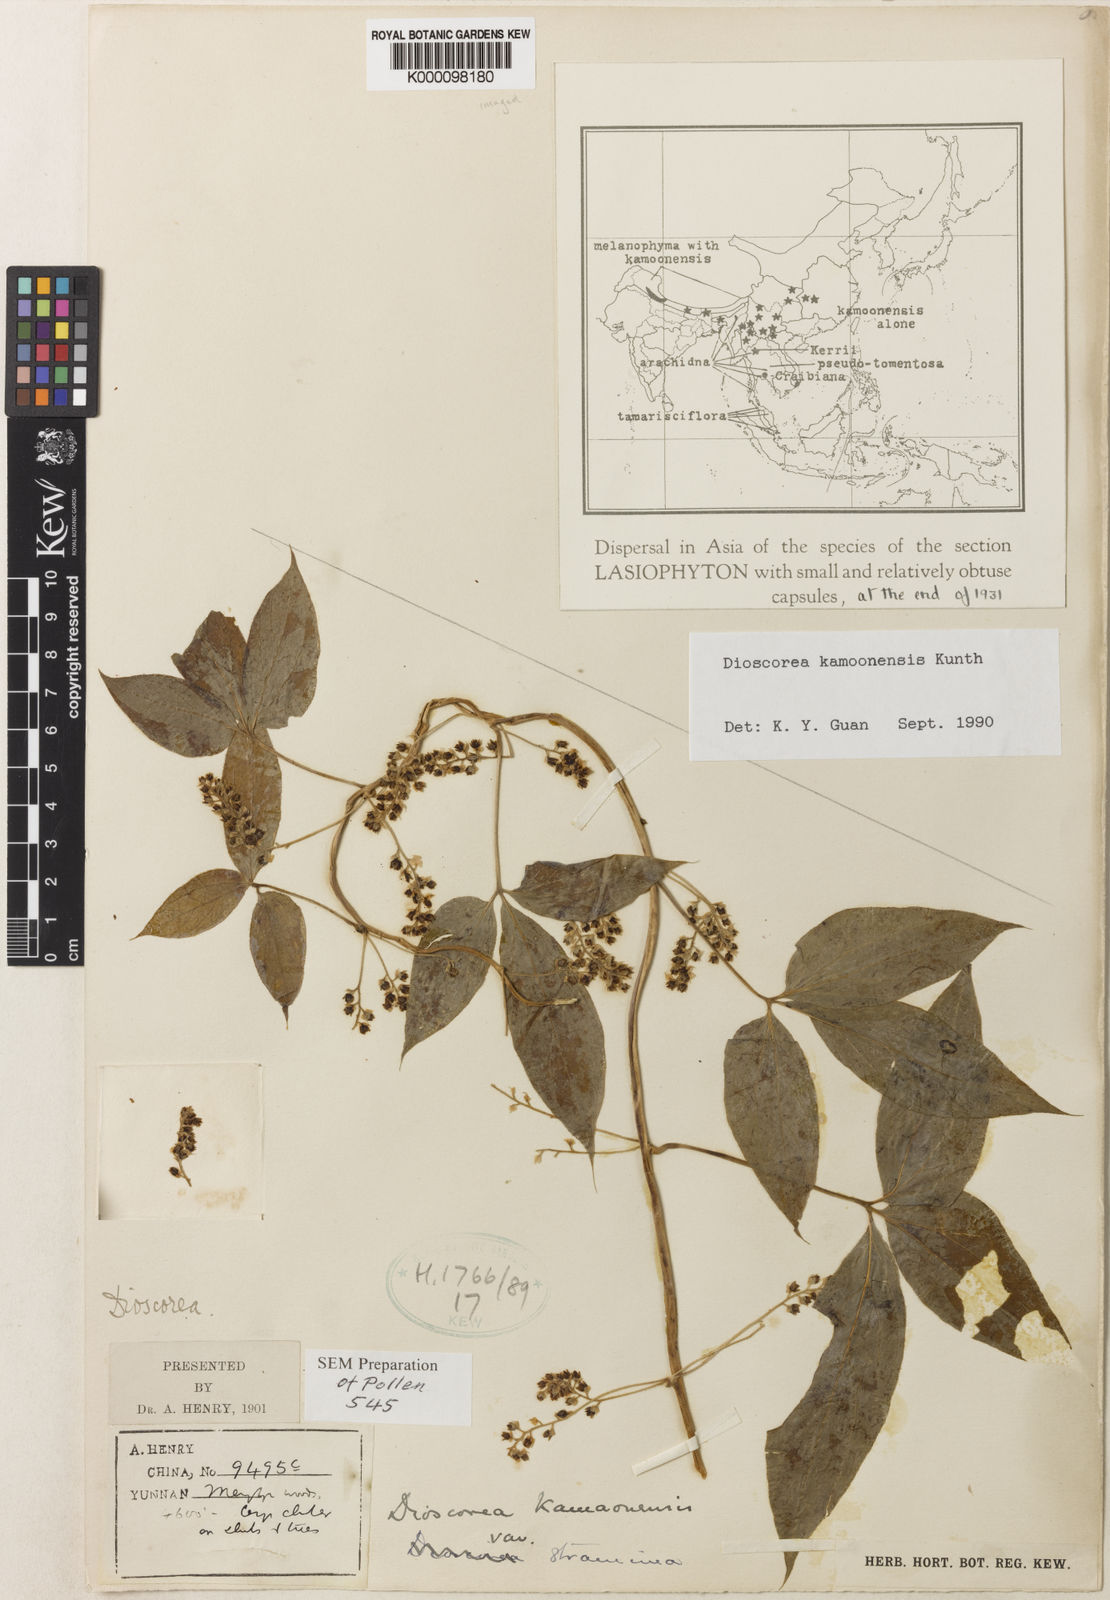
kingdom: Plantae
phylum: Tracheophyta
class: Liliopsida
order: Dioscoreales
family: Dioscoreaceae
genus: Dioscorea
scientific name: Dioscorea kamoonensis
